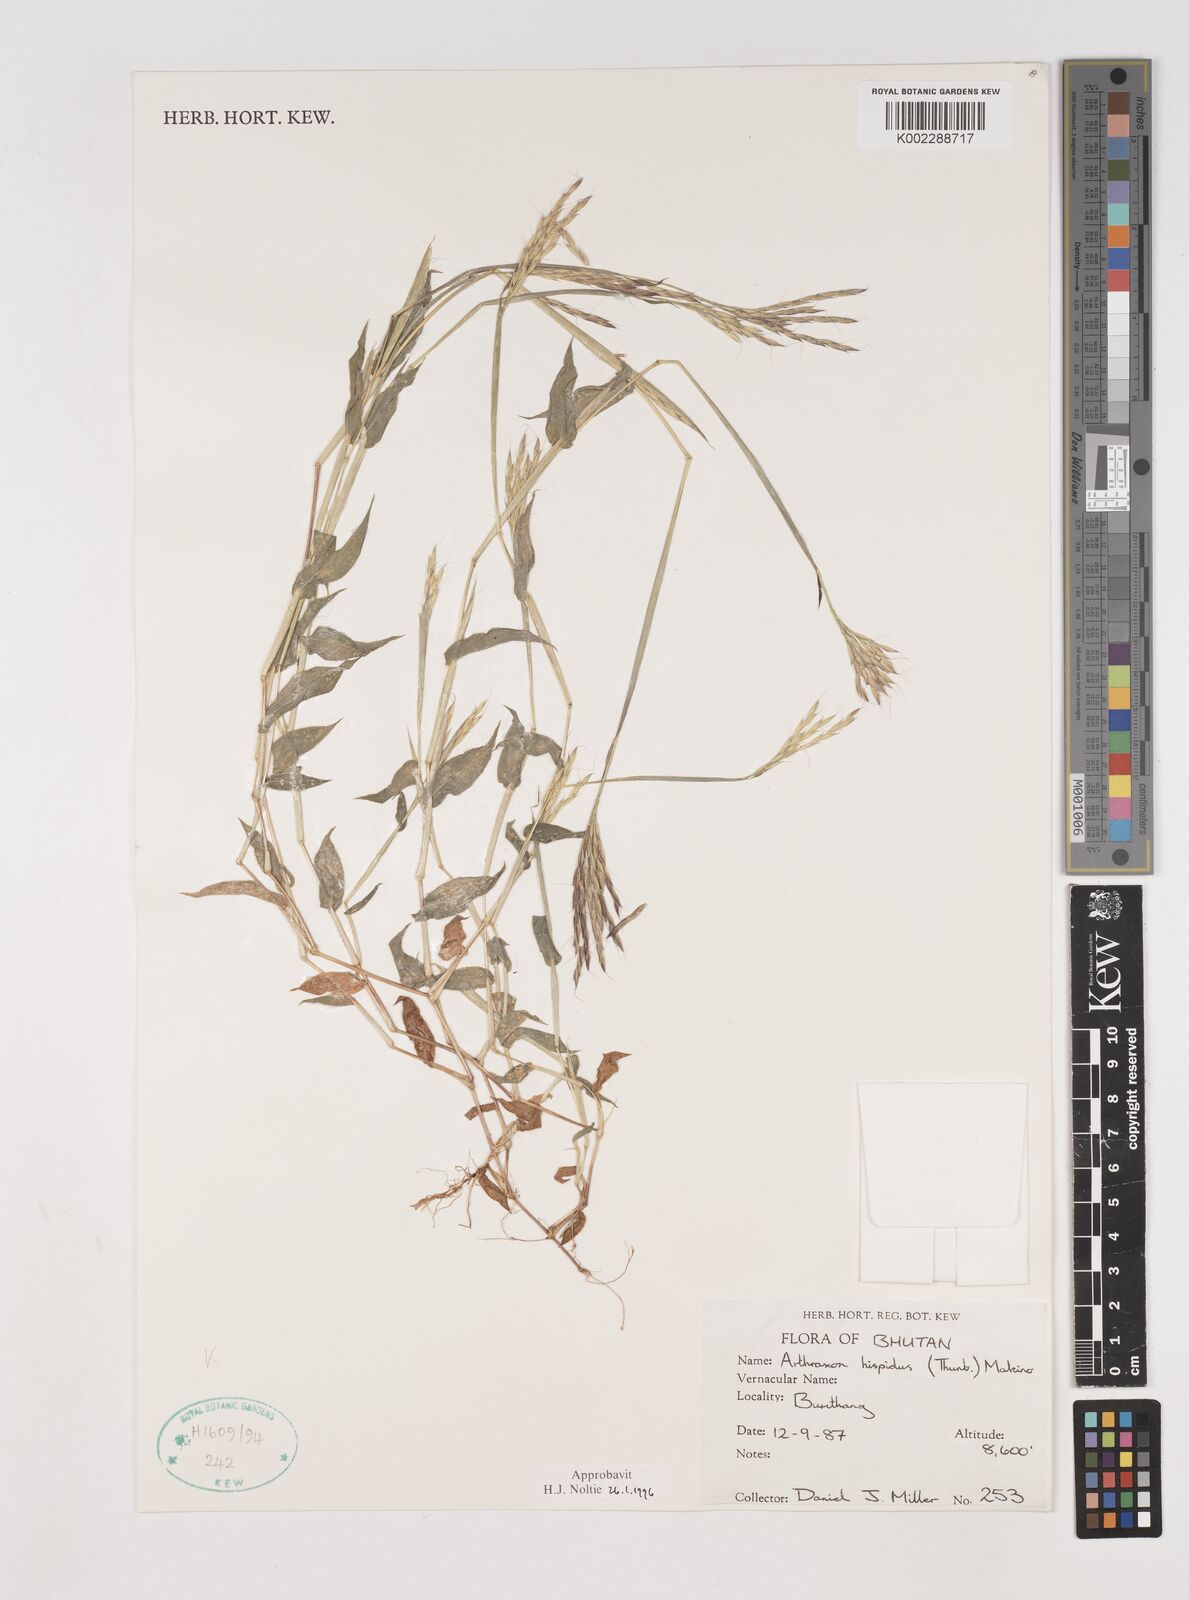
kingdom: Plantae
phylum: Tracheophyta
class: Liliopsida
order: Poales
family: Poaceae
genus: Arthraxon
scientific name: Arthraxon hispidus
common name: Small carpgrass
